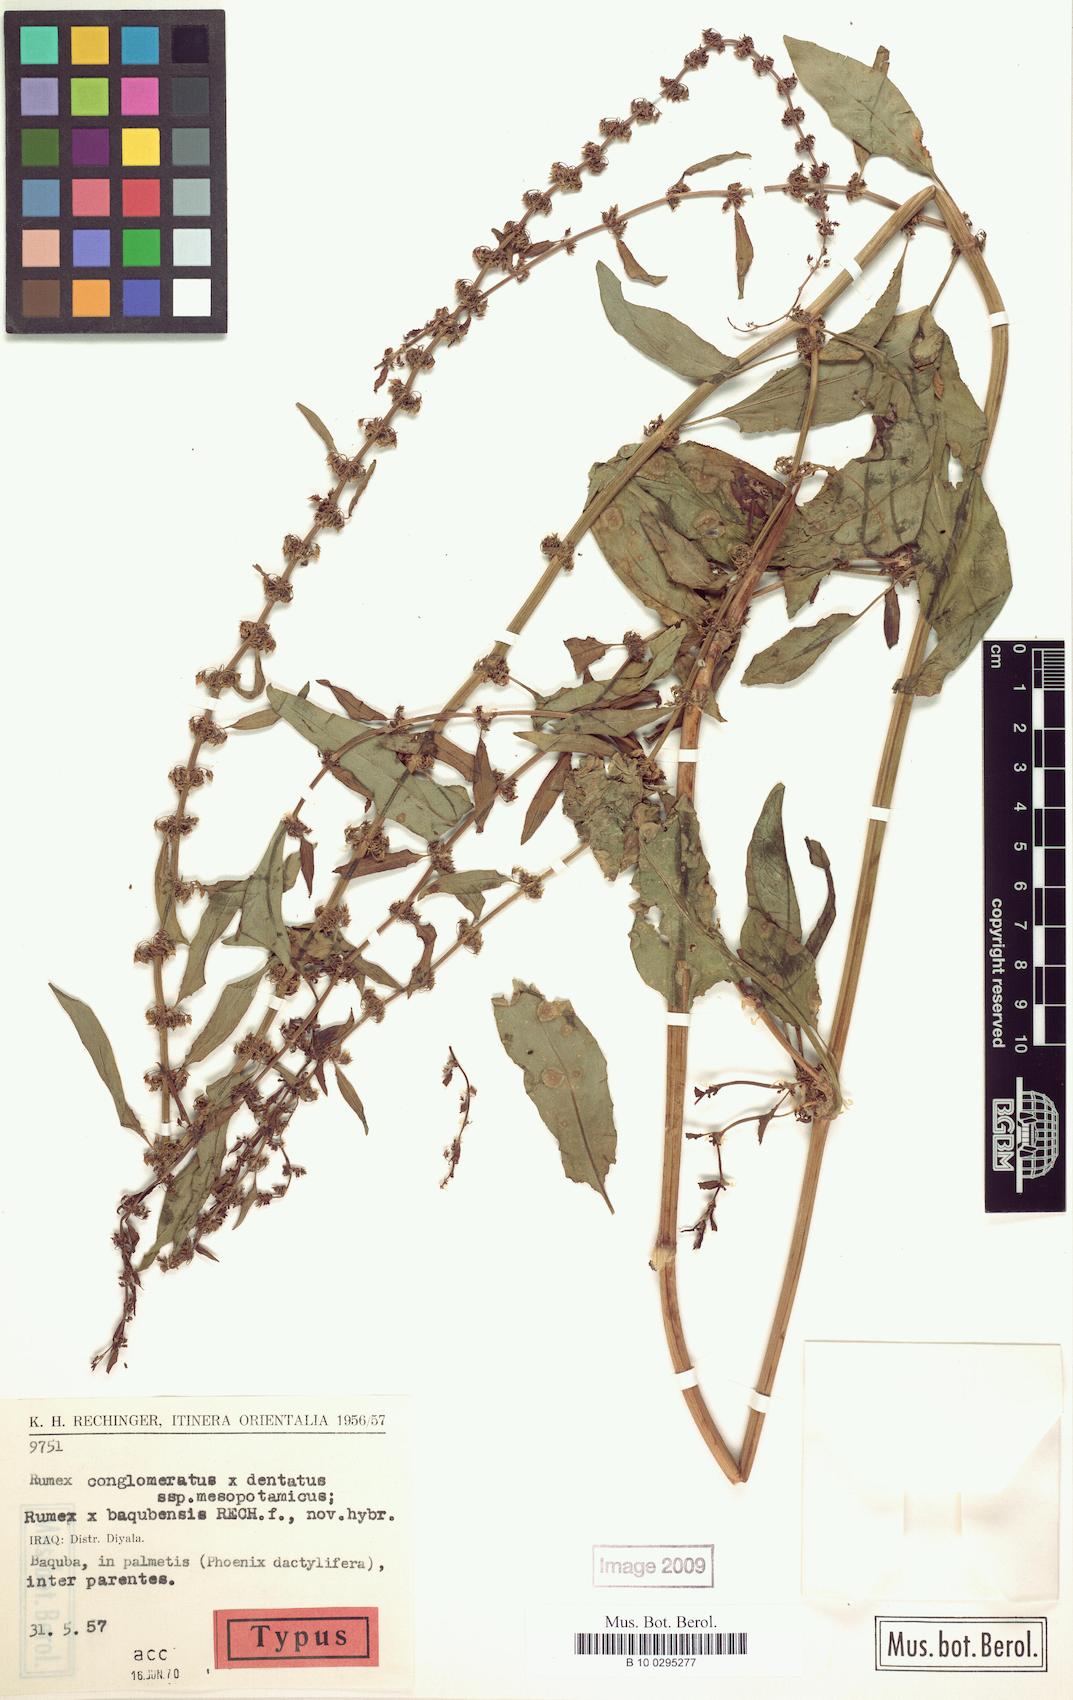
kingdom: Plantae
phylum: Tracheophyta
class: Magnoliopsida
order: Caryophyllales
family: Polygonaceae
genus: Rumex
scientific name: Rumex baqubensis
